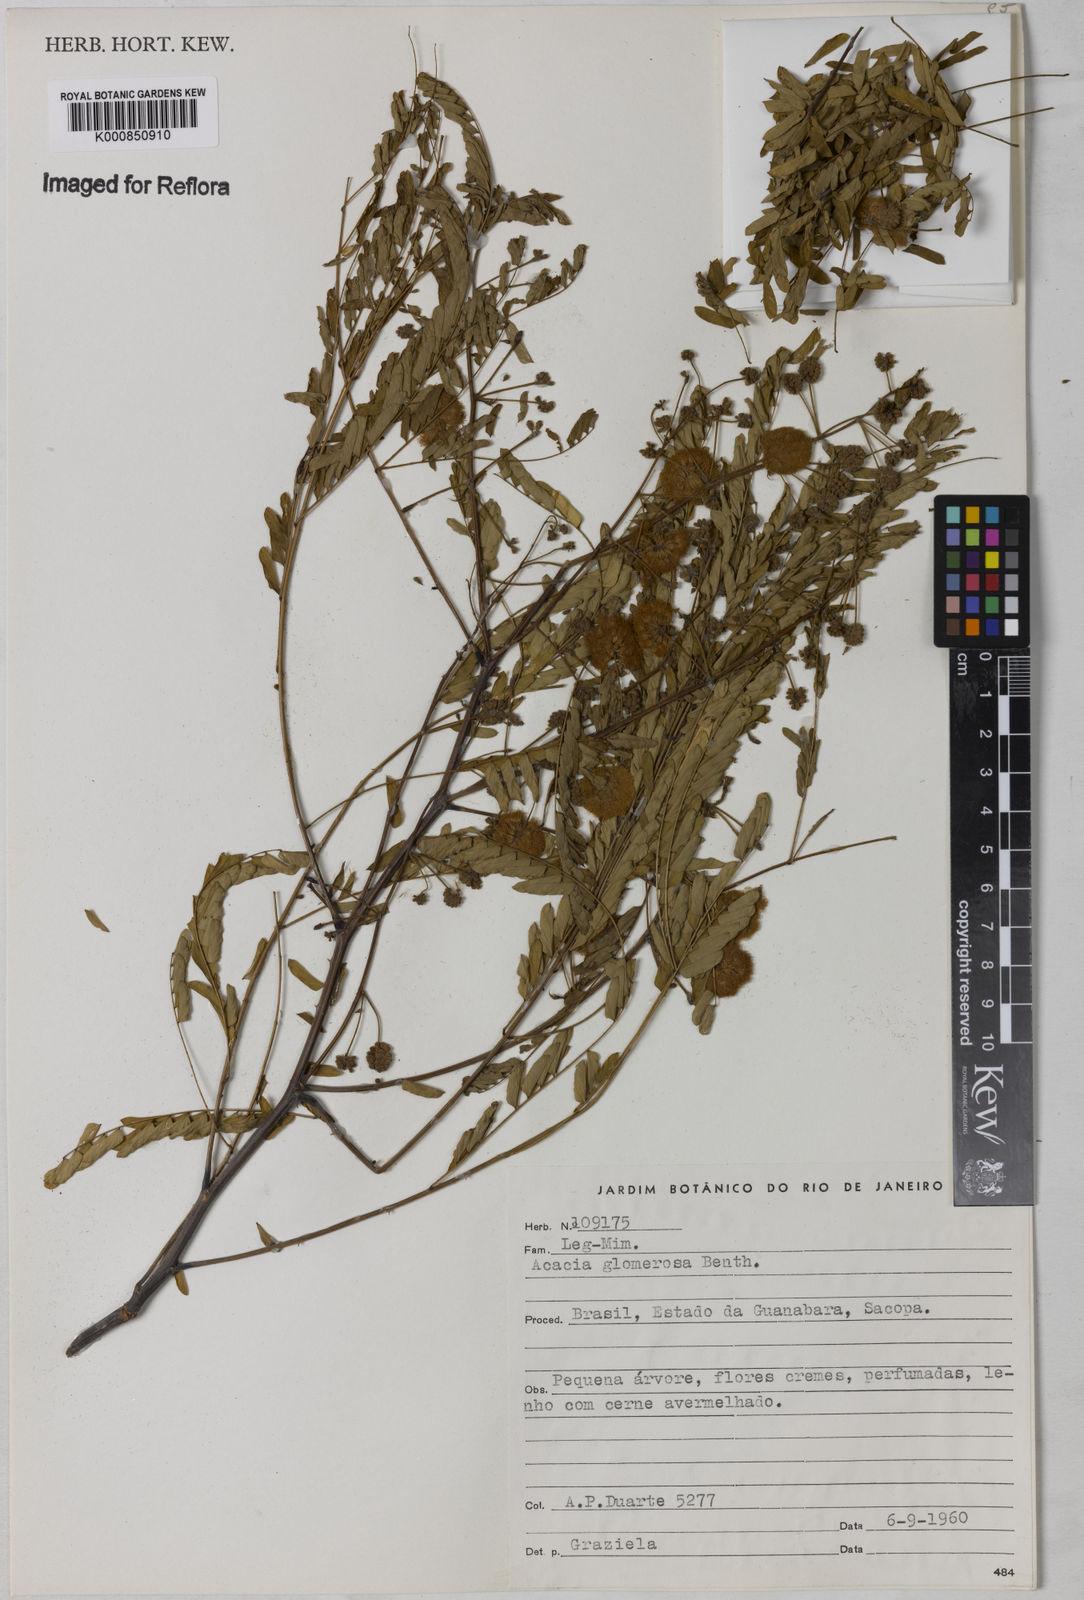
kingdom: Plantae
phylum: Tracheophyta
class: Magnoliopsida
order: Fabales
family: Fabaceae
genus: Senegalia
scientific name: Senegalia polyphylla
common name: White-tamarind
